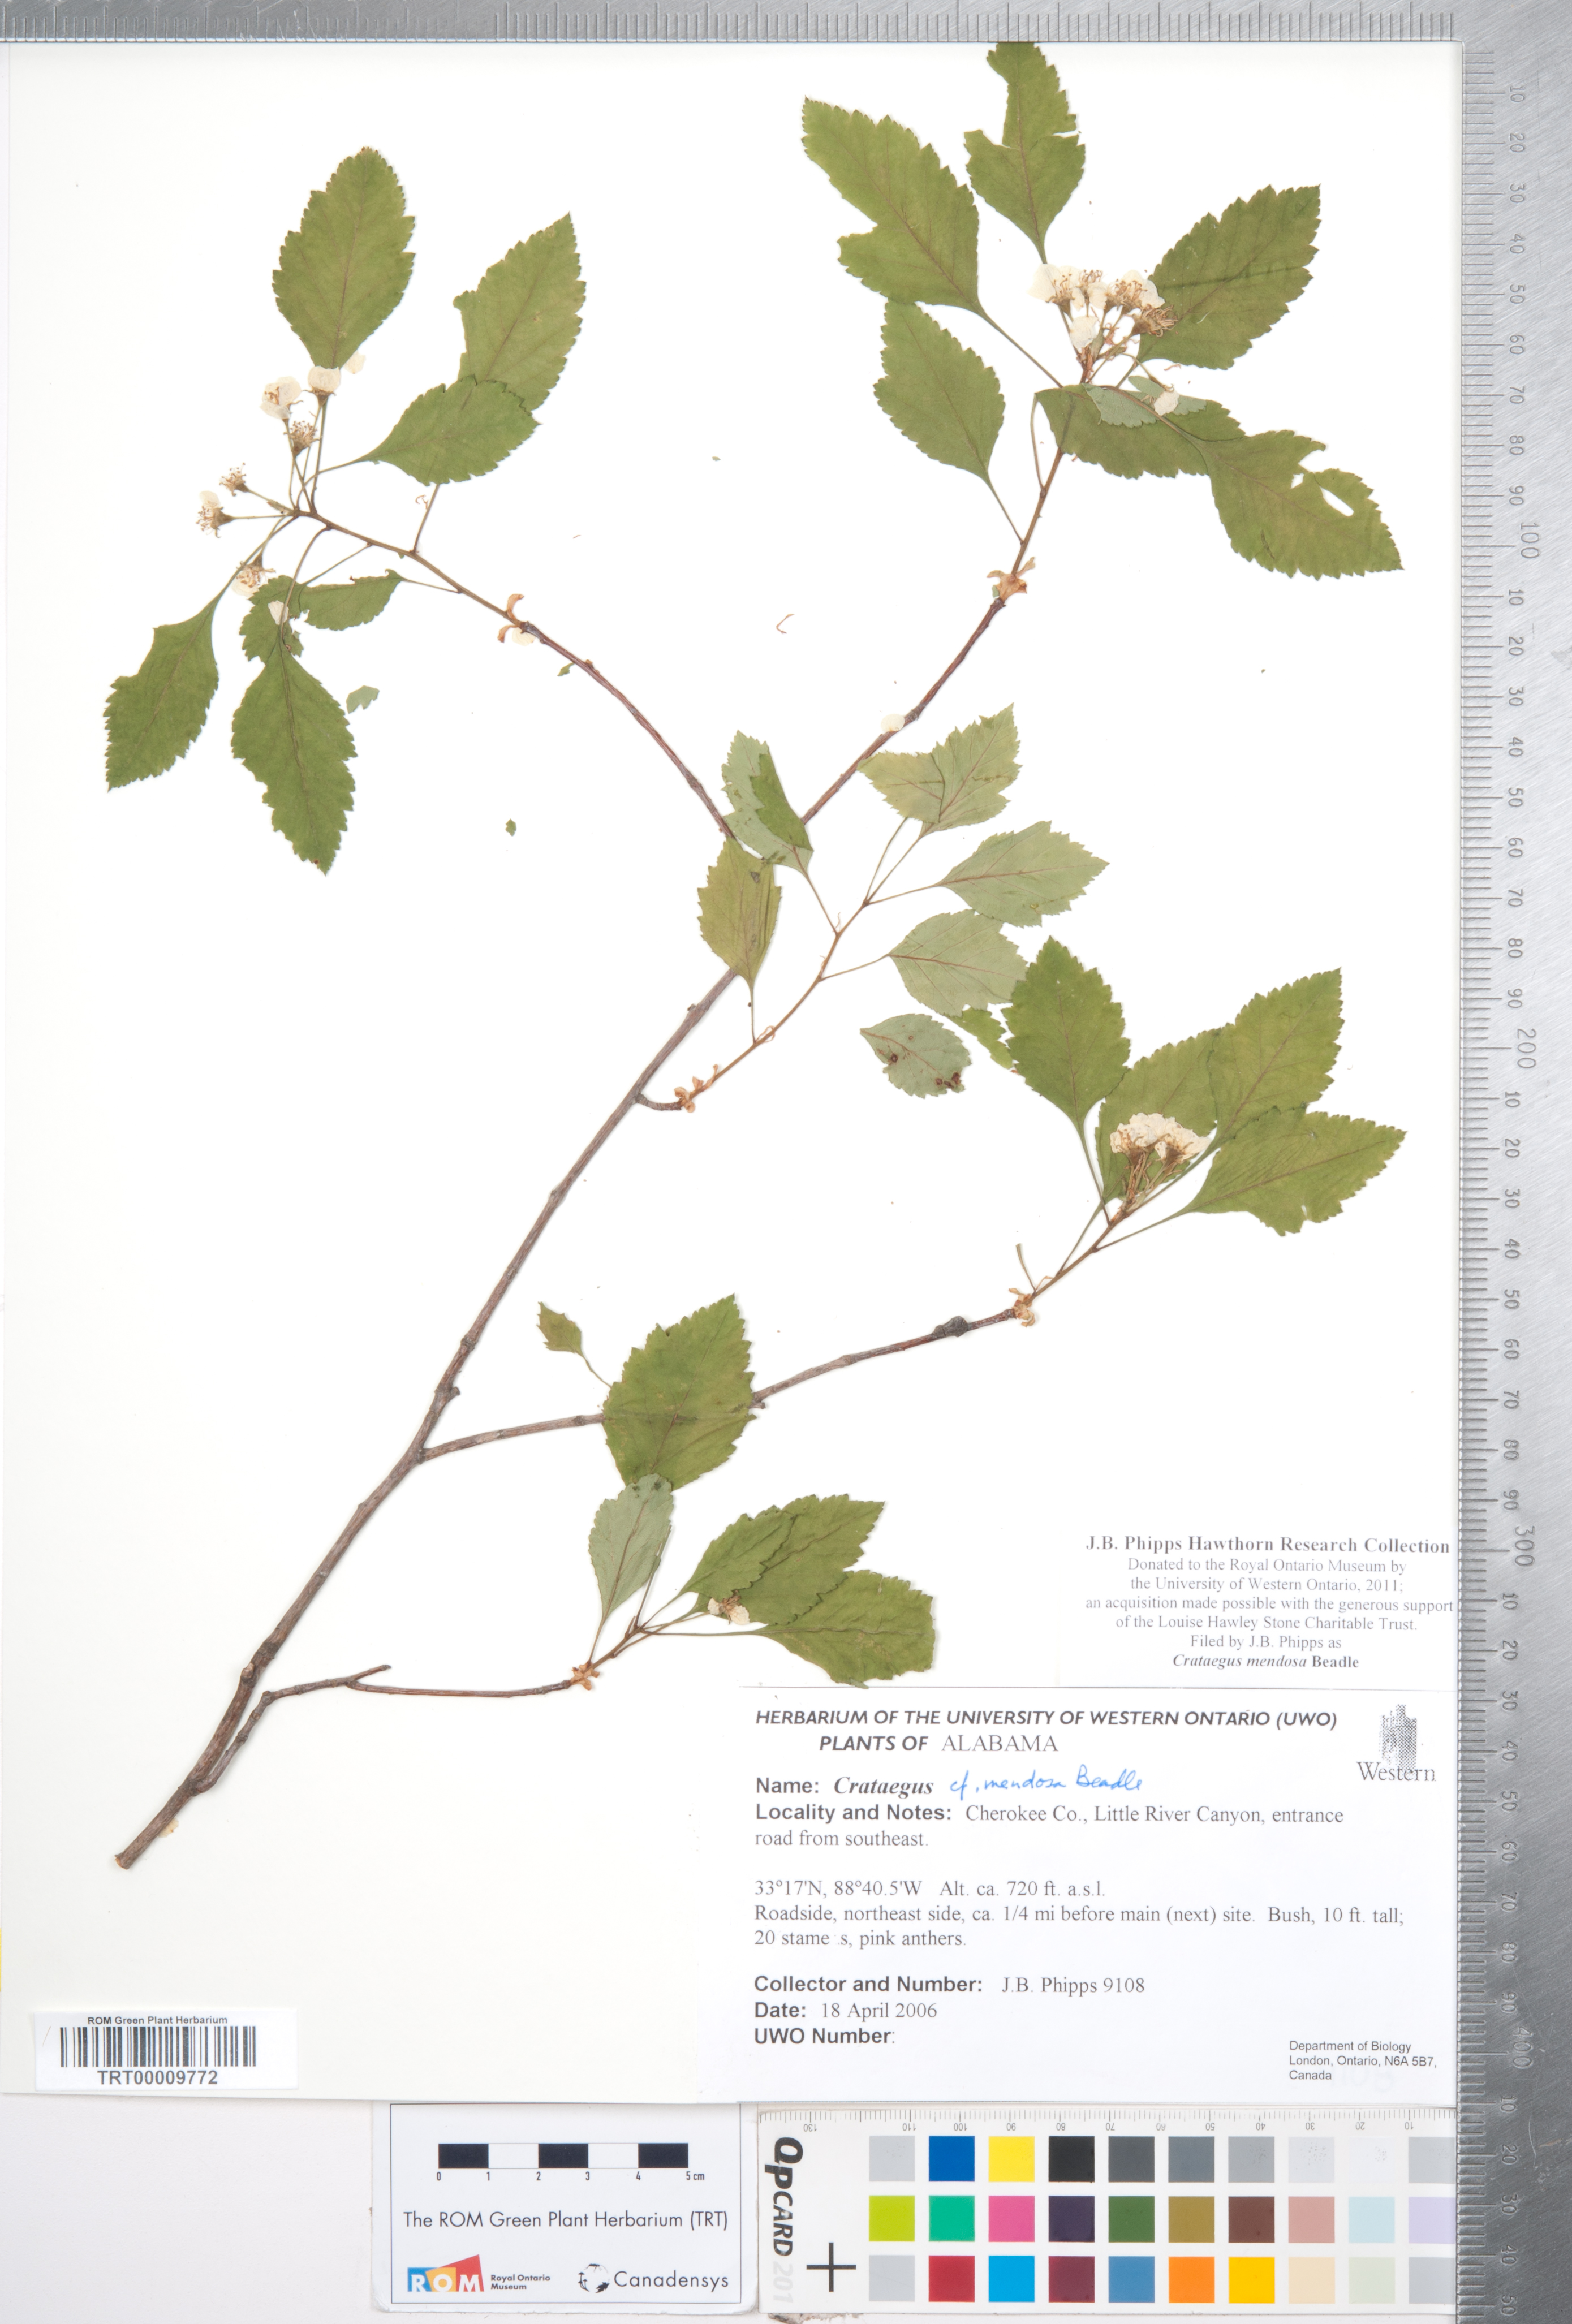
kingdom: Plantae
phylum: Tracheophyta
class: Magnoliopsida
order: Rosales
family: Rosaceae
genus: Crataegus
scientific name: Crataegus pulcherrima
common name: Beautiful hawthorn
